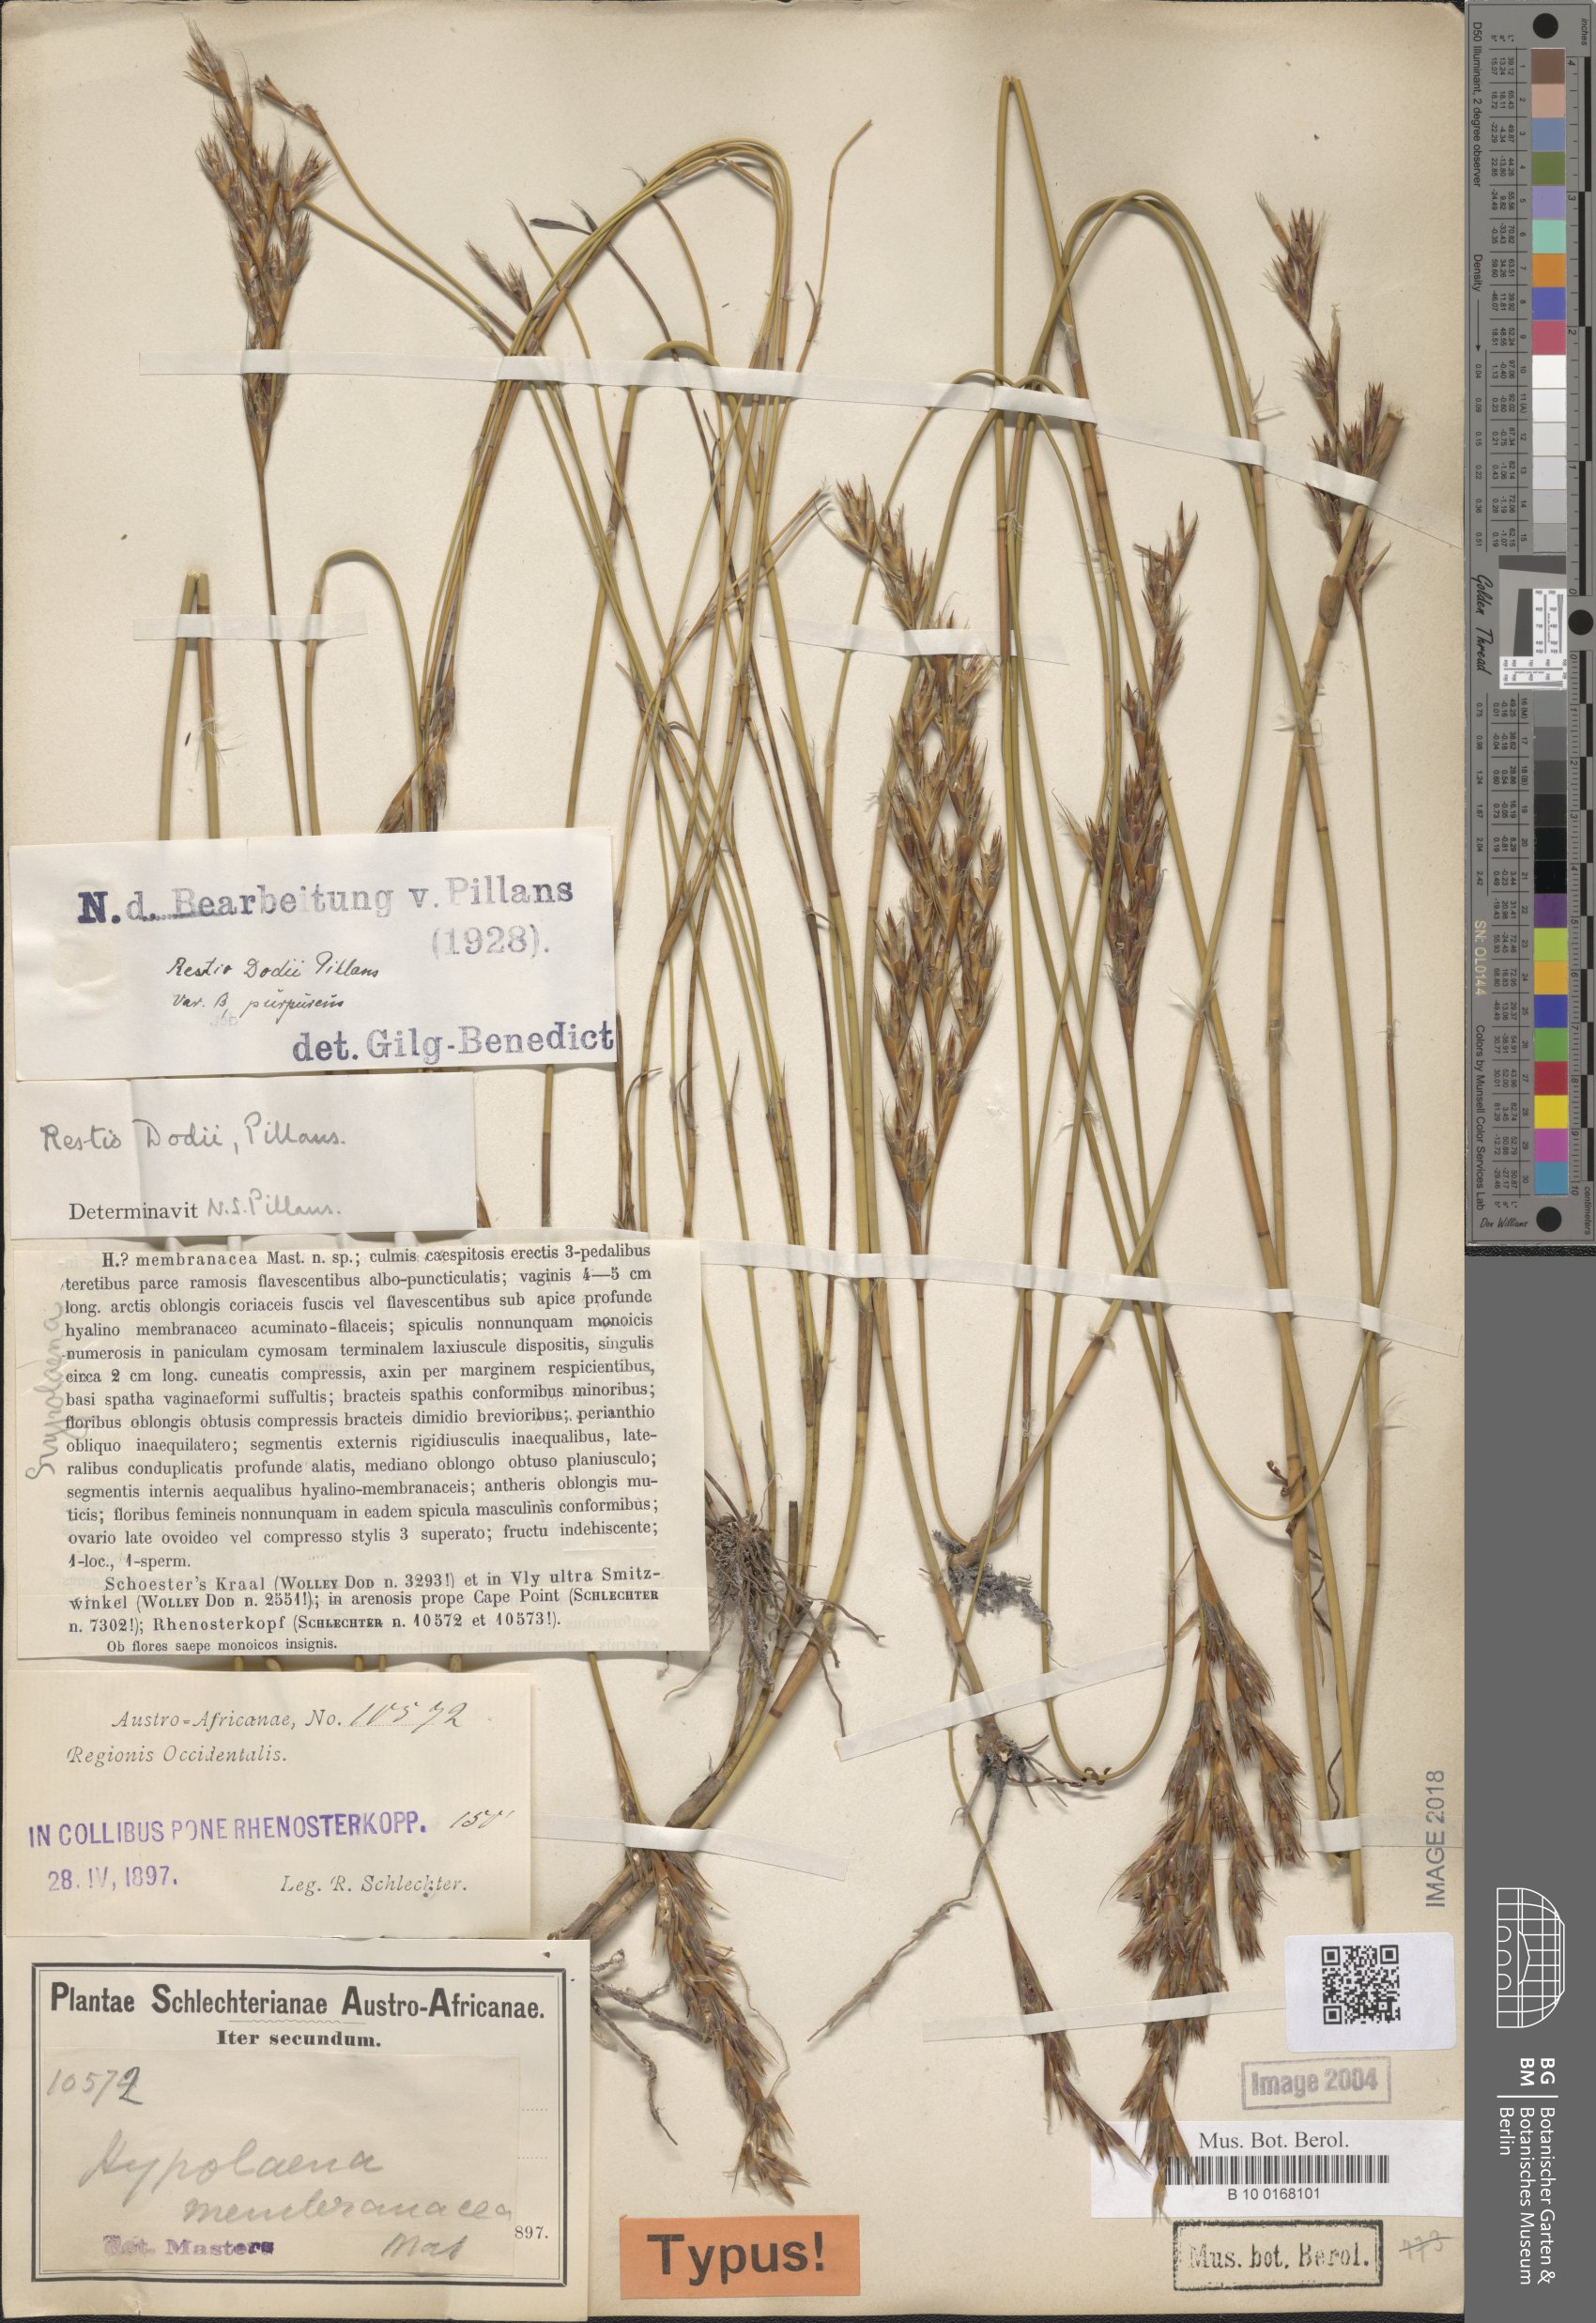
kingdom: Plantae
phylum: Tracheophyta
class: Liliopsida
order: Poales
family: Restionaceae
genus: Restio
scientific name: Restio dodii
